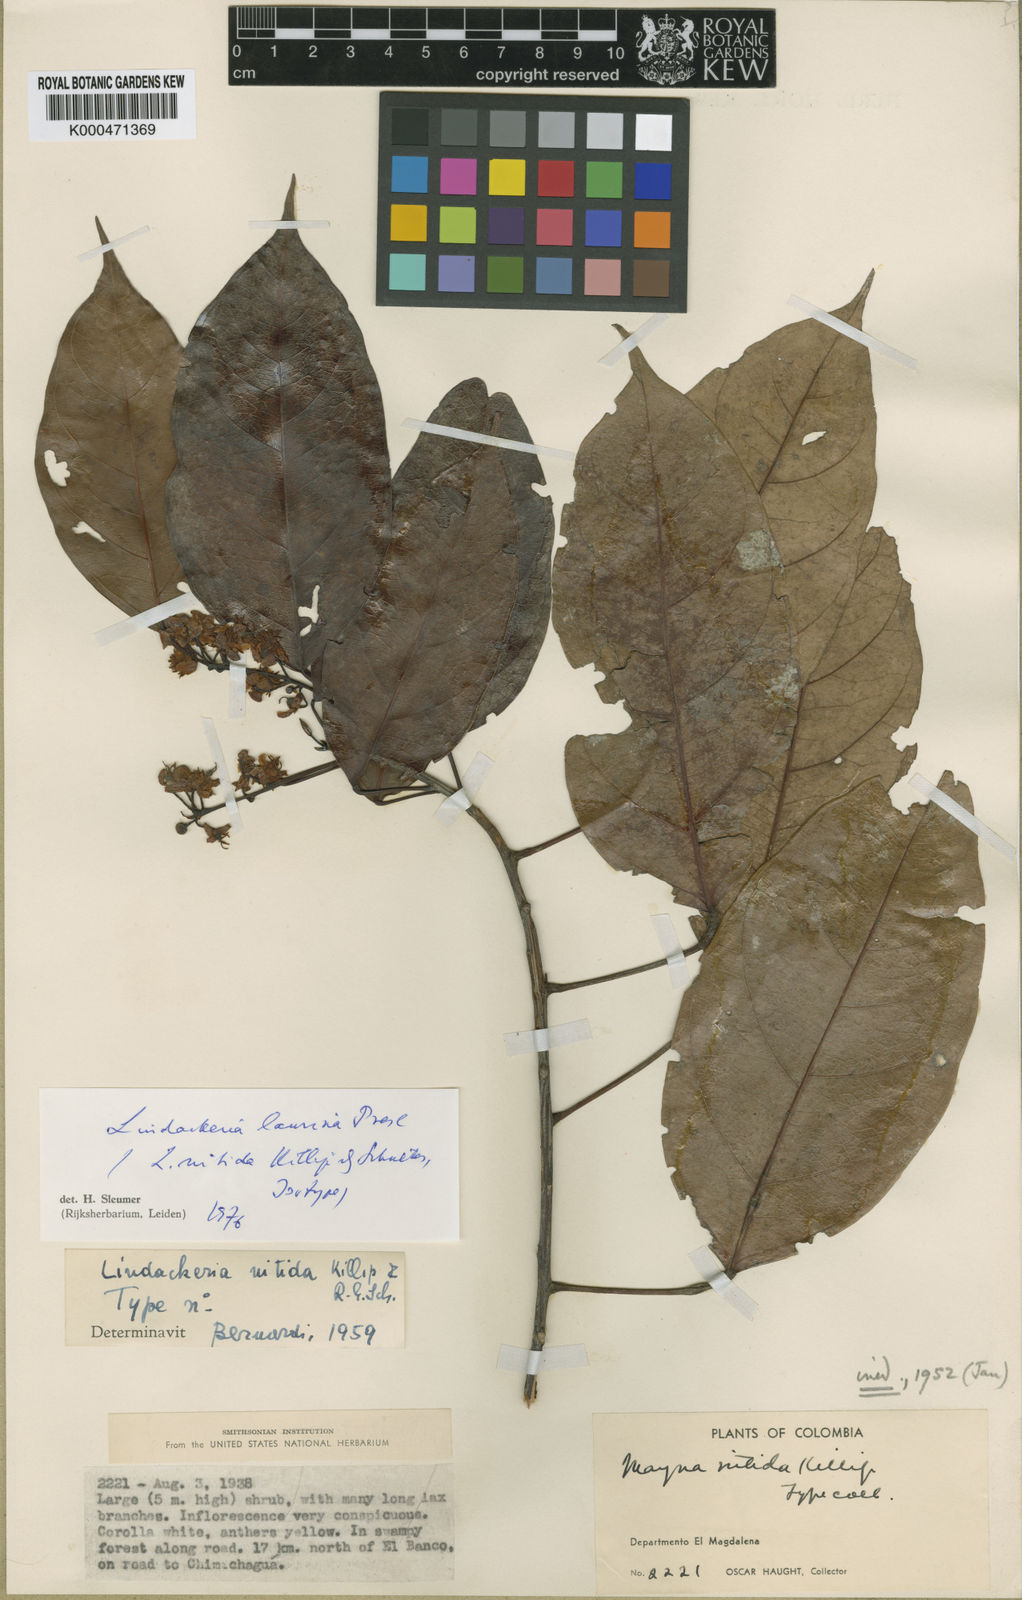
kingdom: Plantae
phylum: Tracheophyta
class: Magnoliopsida
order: Malpighiales
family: Achariaceae
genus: Lindackeria
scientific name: Lindackeria laurina
